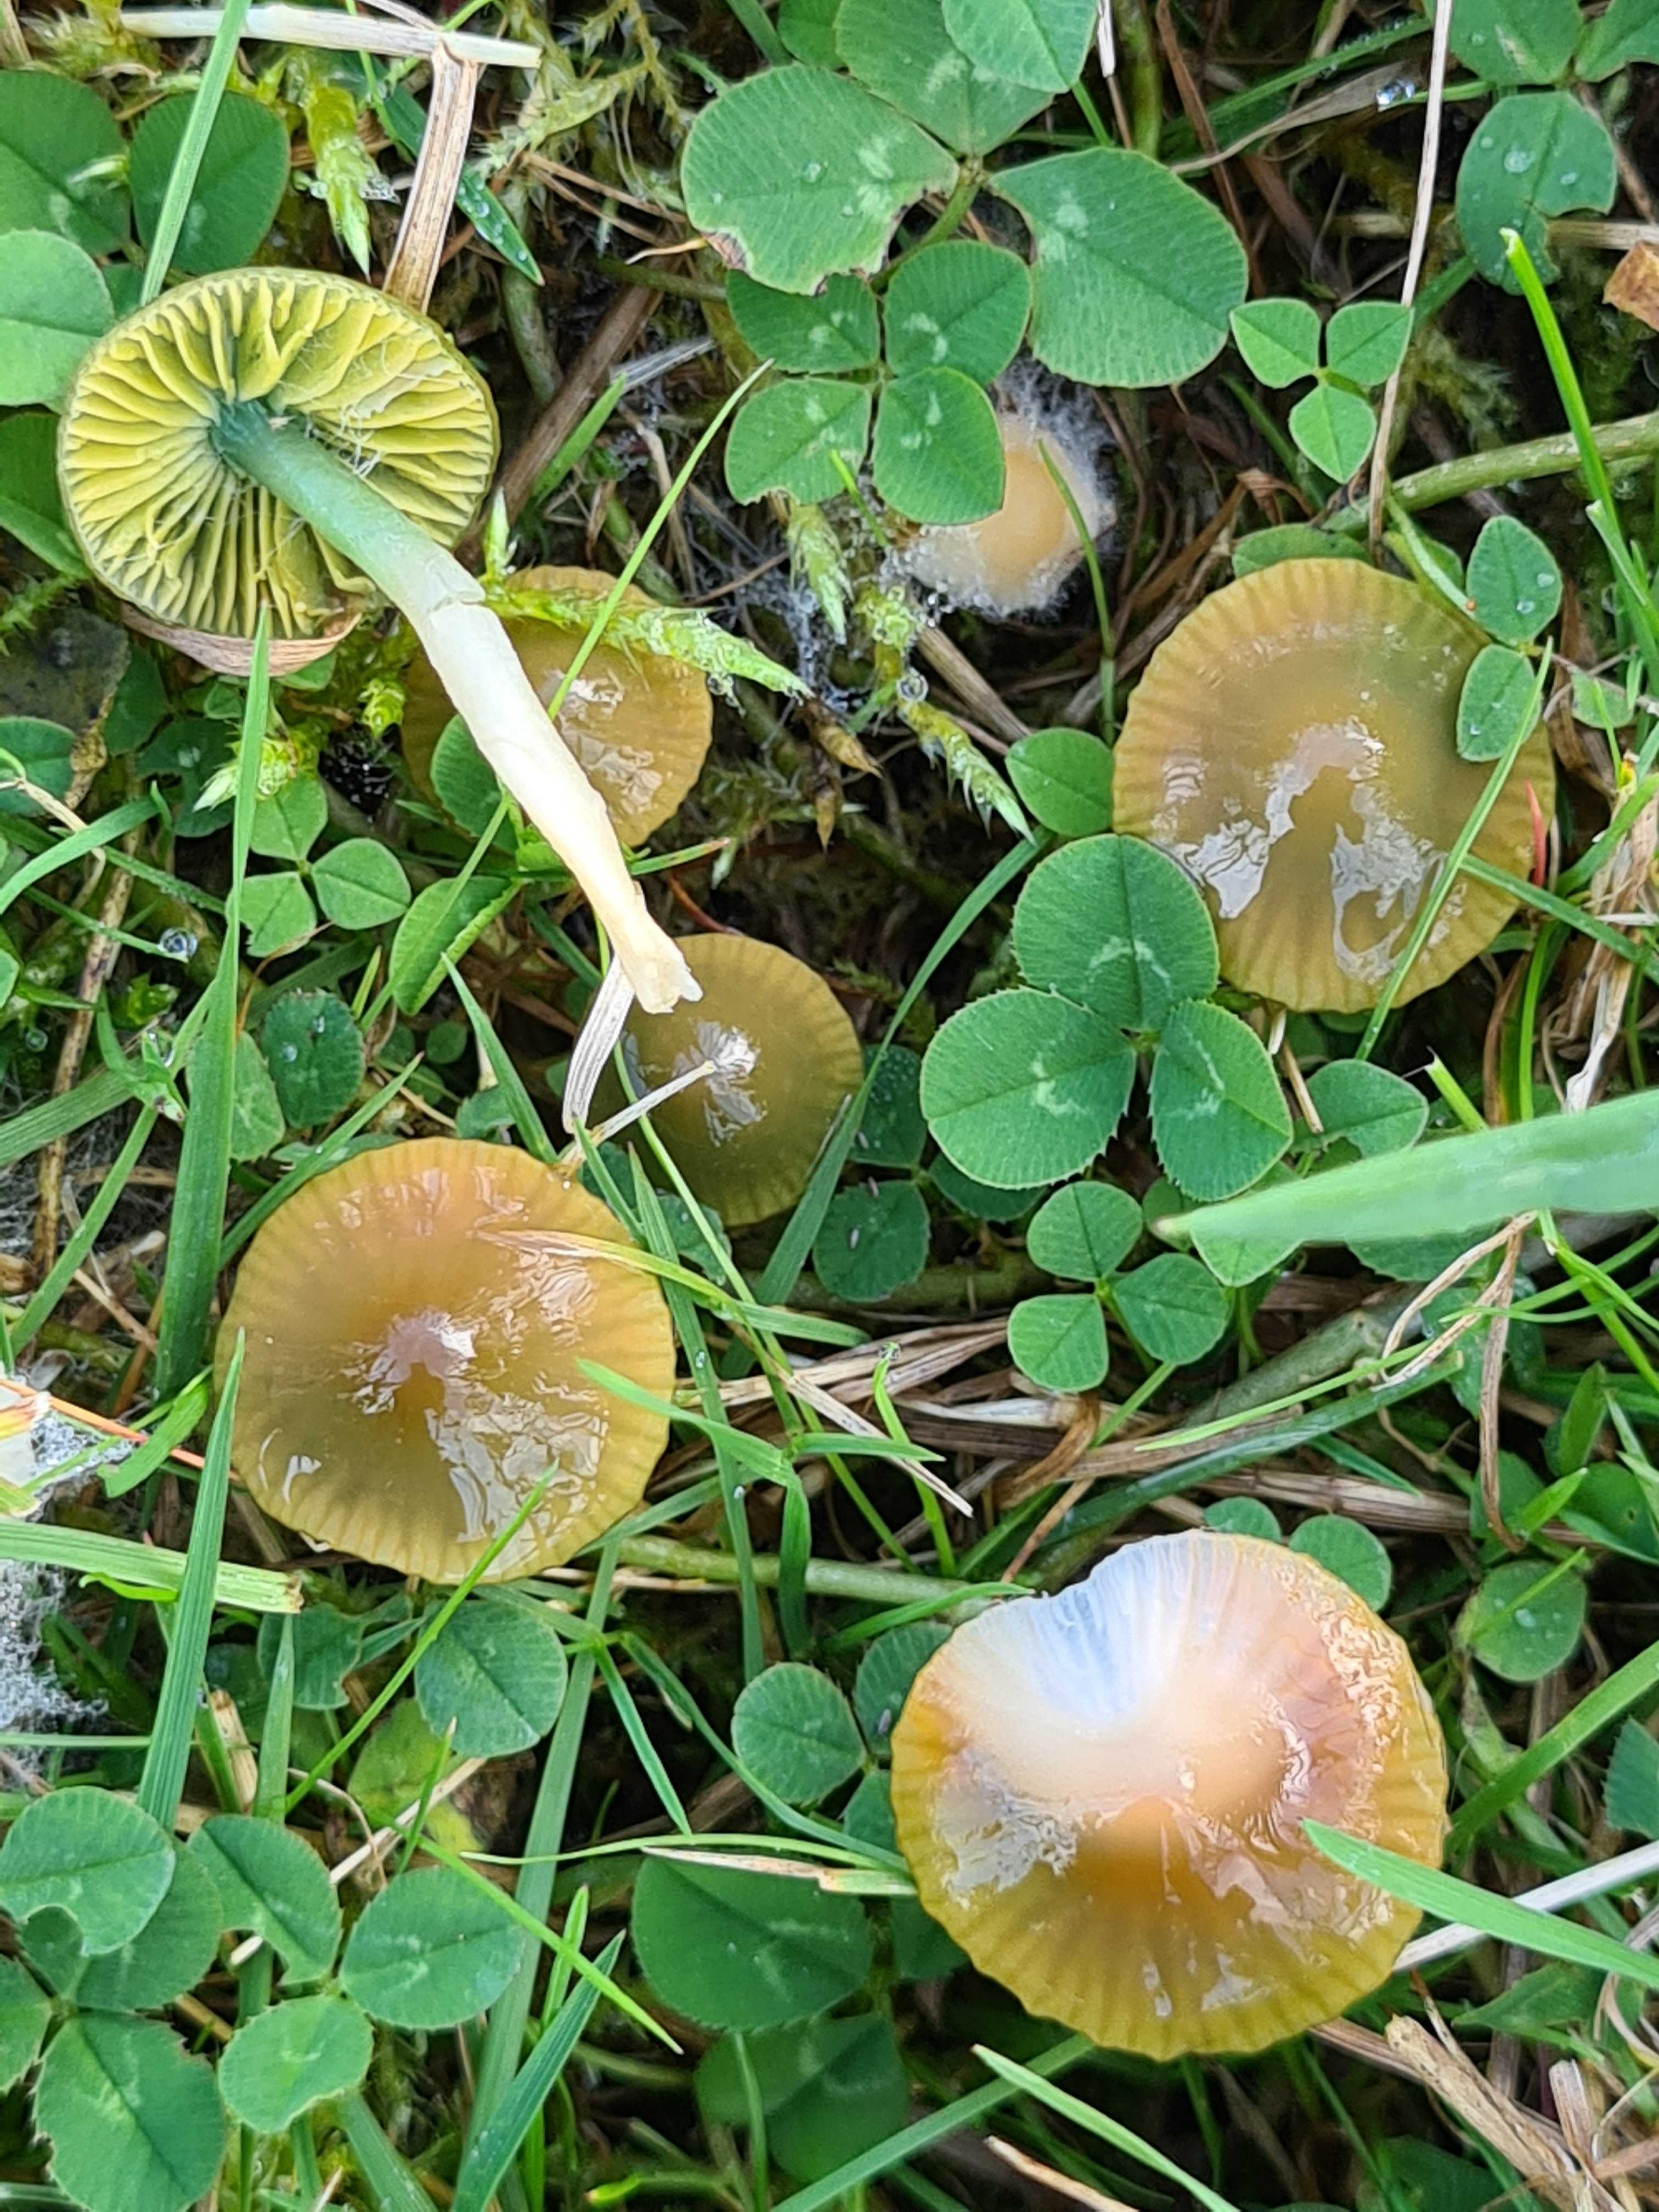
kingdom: Fungi
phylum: Basidiomycota
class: Agaricomycetes
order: Agaricales
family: Hygrophoraceae
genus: Gliophorus
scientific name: Gliophorus psittacinus
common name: papegøje-vokshat
